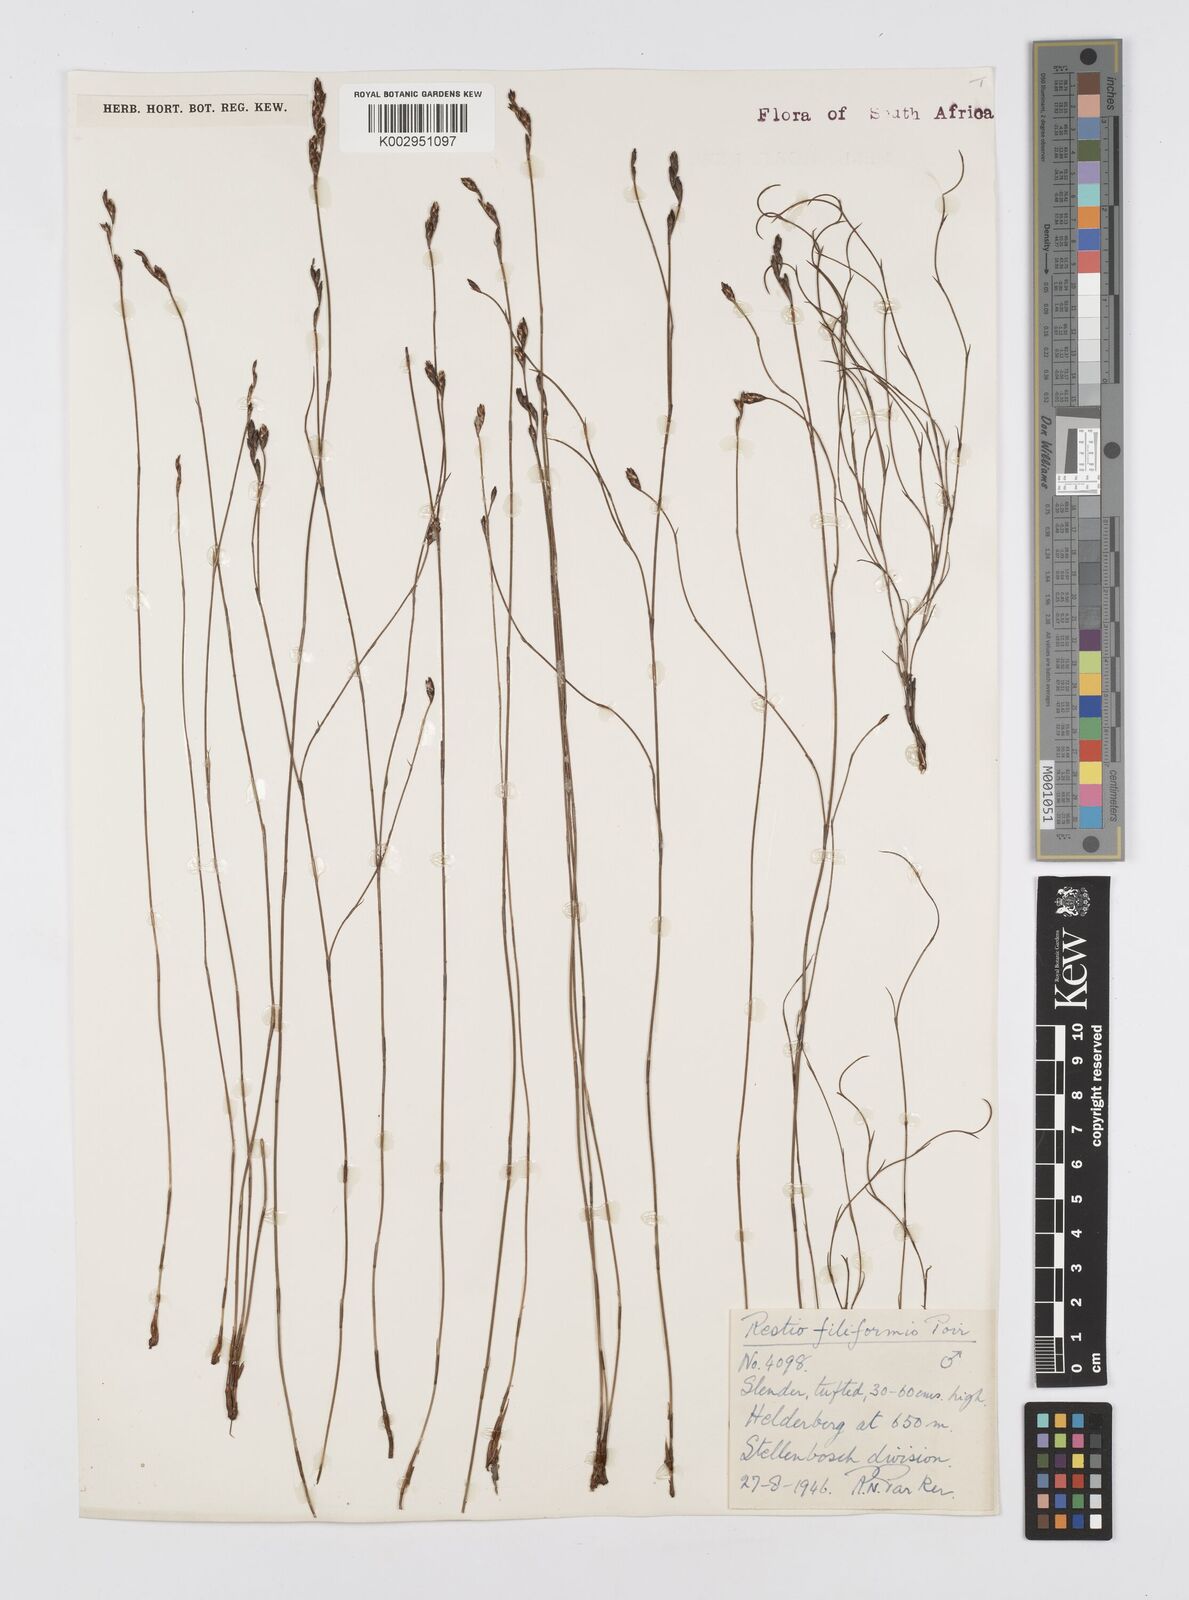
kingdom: Plantae
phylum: Tracheophyta
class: Liliopsida
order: Poales
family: Restionaceae
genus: Restio
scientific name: Restio filiformis
